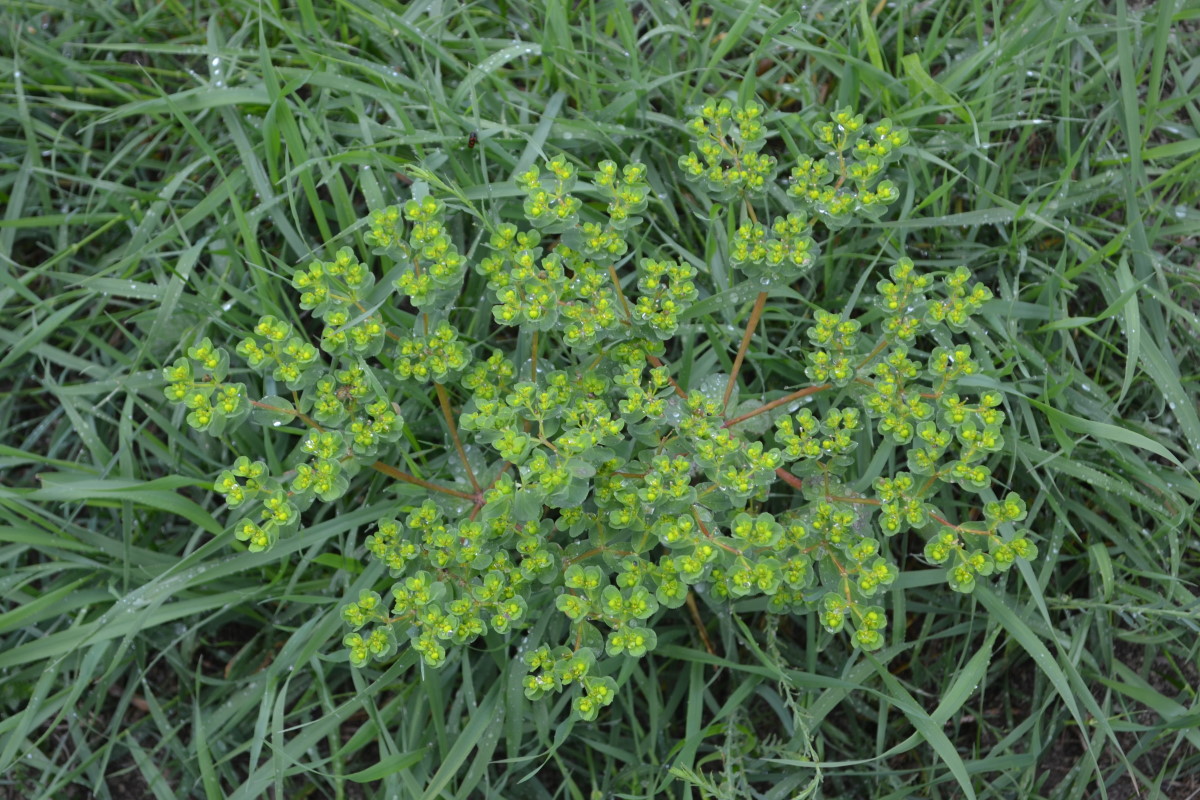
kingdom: Plantae
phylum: Tracheophyta
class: Magnoliopsida
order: Malpighiales
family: Euphorbiaceae
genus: Euphorbia
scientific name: Euphorbia
